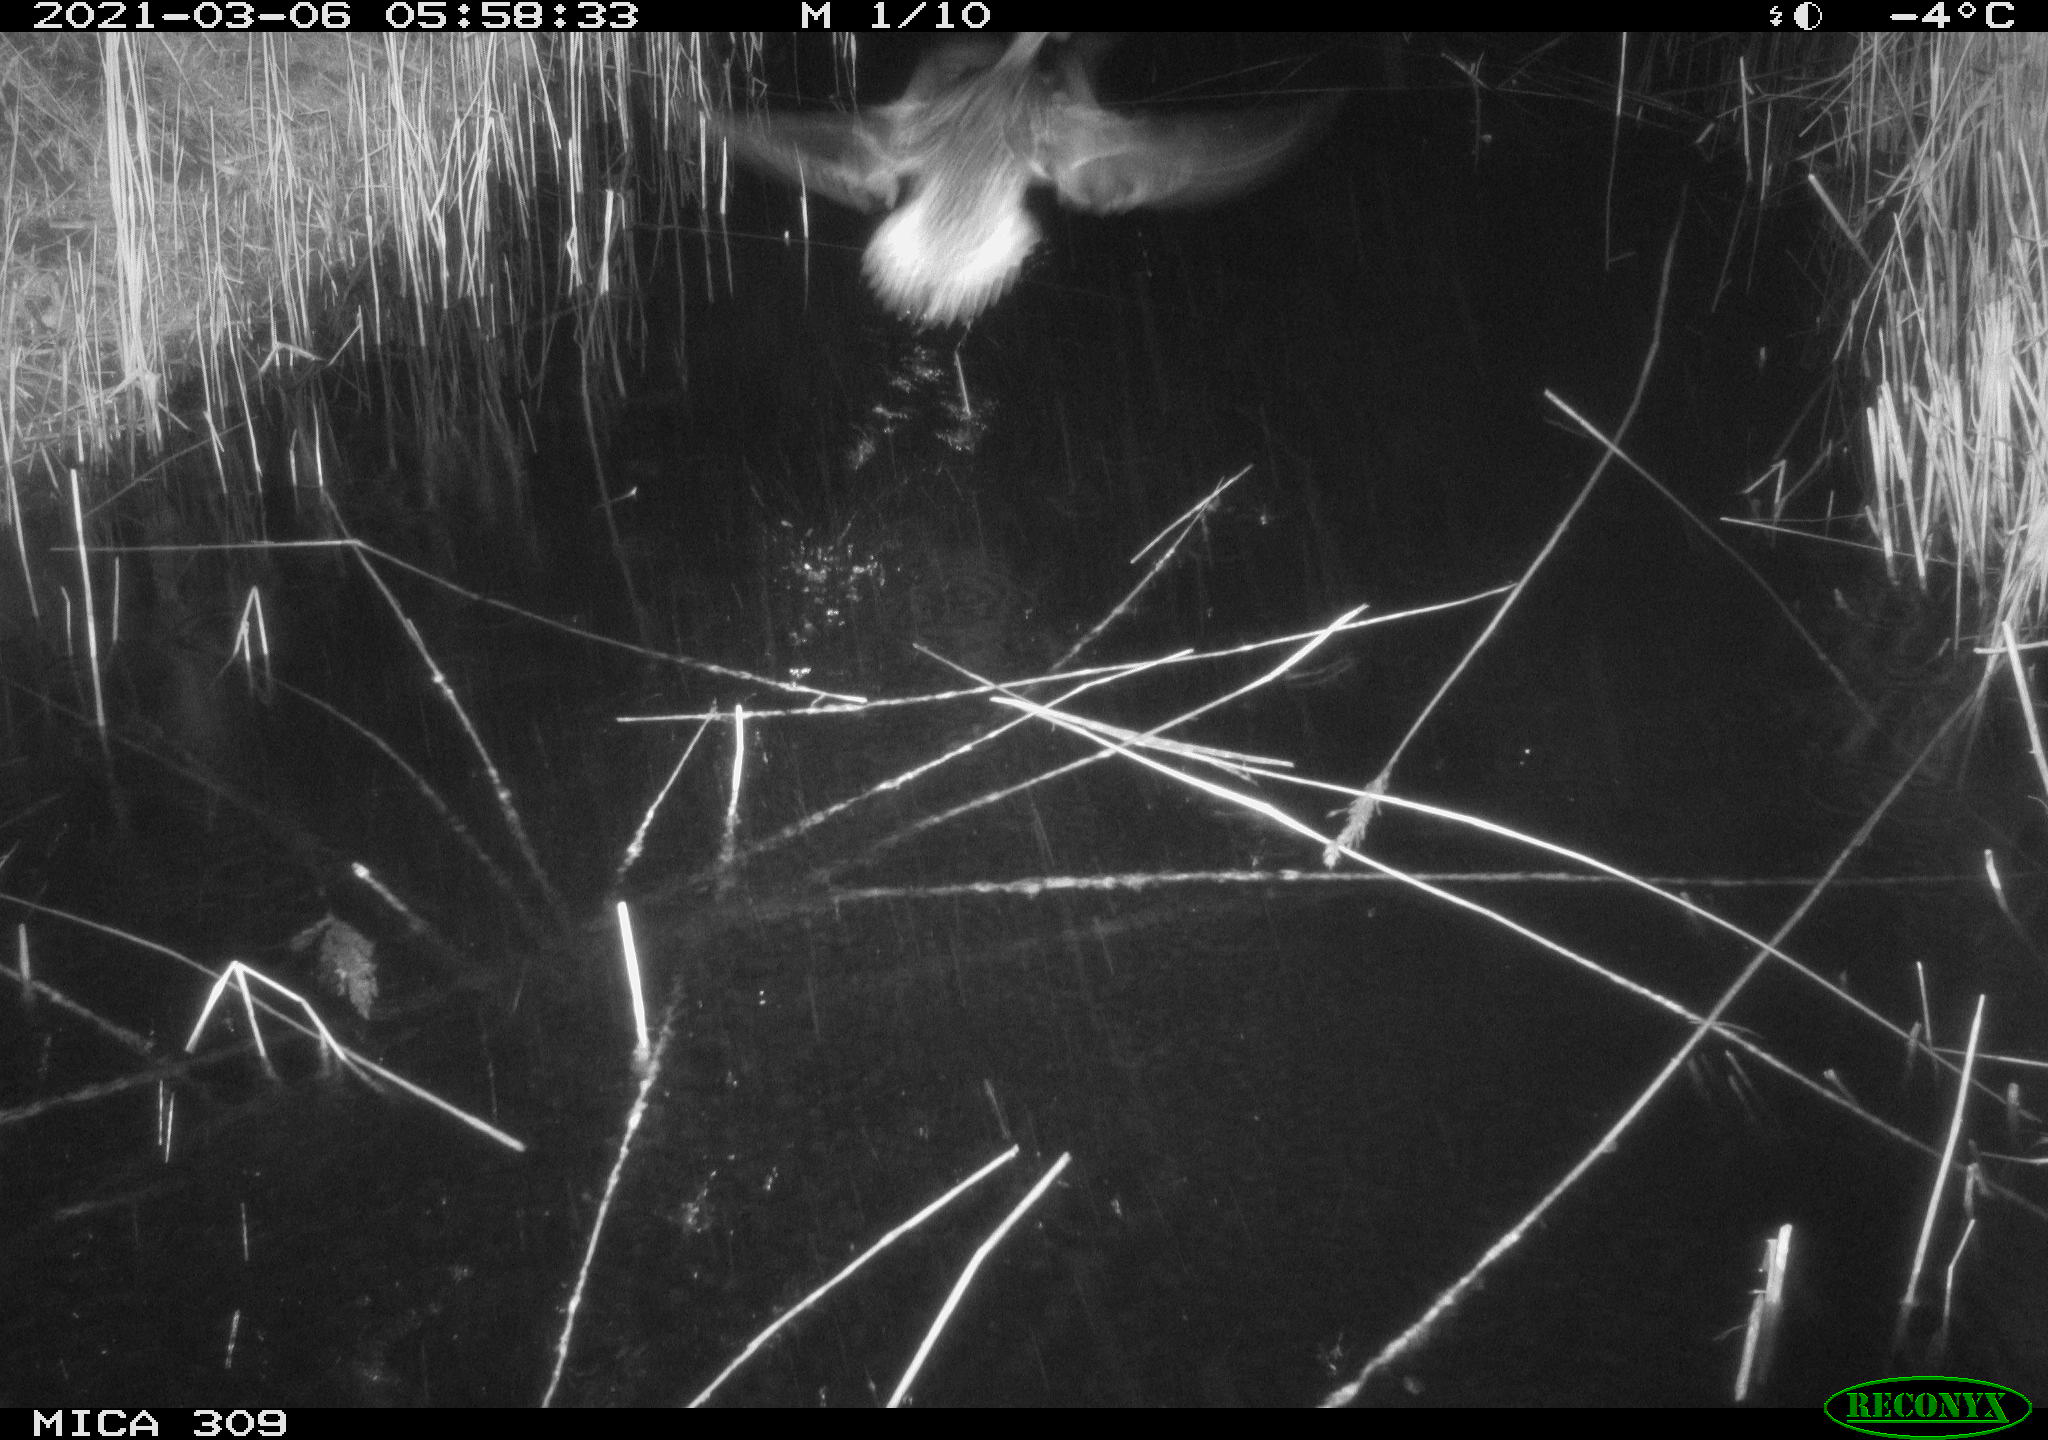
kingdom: Animalia
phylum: Chordata
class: Aves
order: Anseriformes
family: Anatidae
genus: Anas
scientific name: Anas platyrhynchos
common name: Mallard
